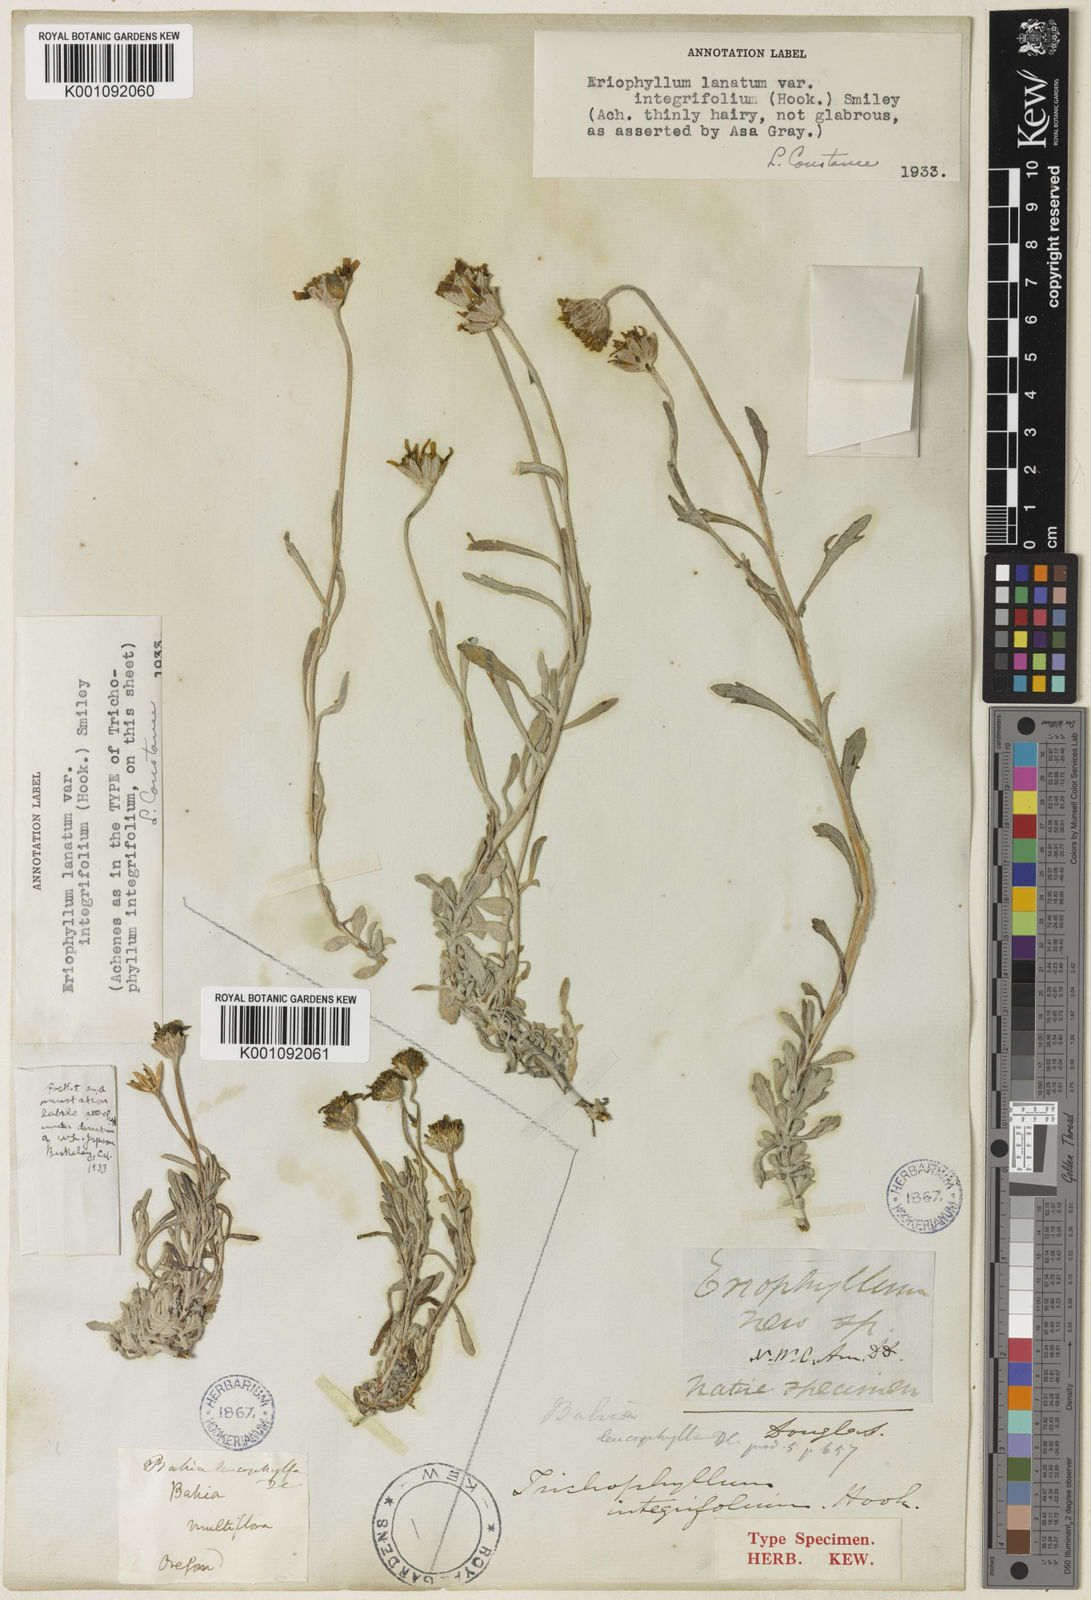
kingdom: Plantae
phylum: Tracheophyta
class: Magnoliopsida
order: Asterales
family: Asteraceae
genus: Eriophyllum
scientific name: Eriophyllum lanatum
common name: Common woolly-sunflower
